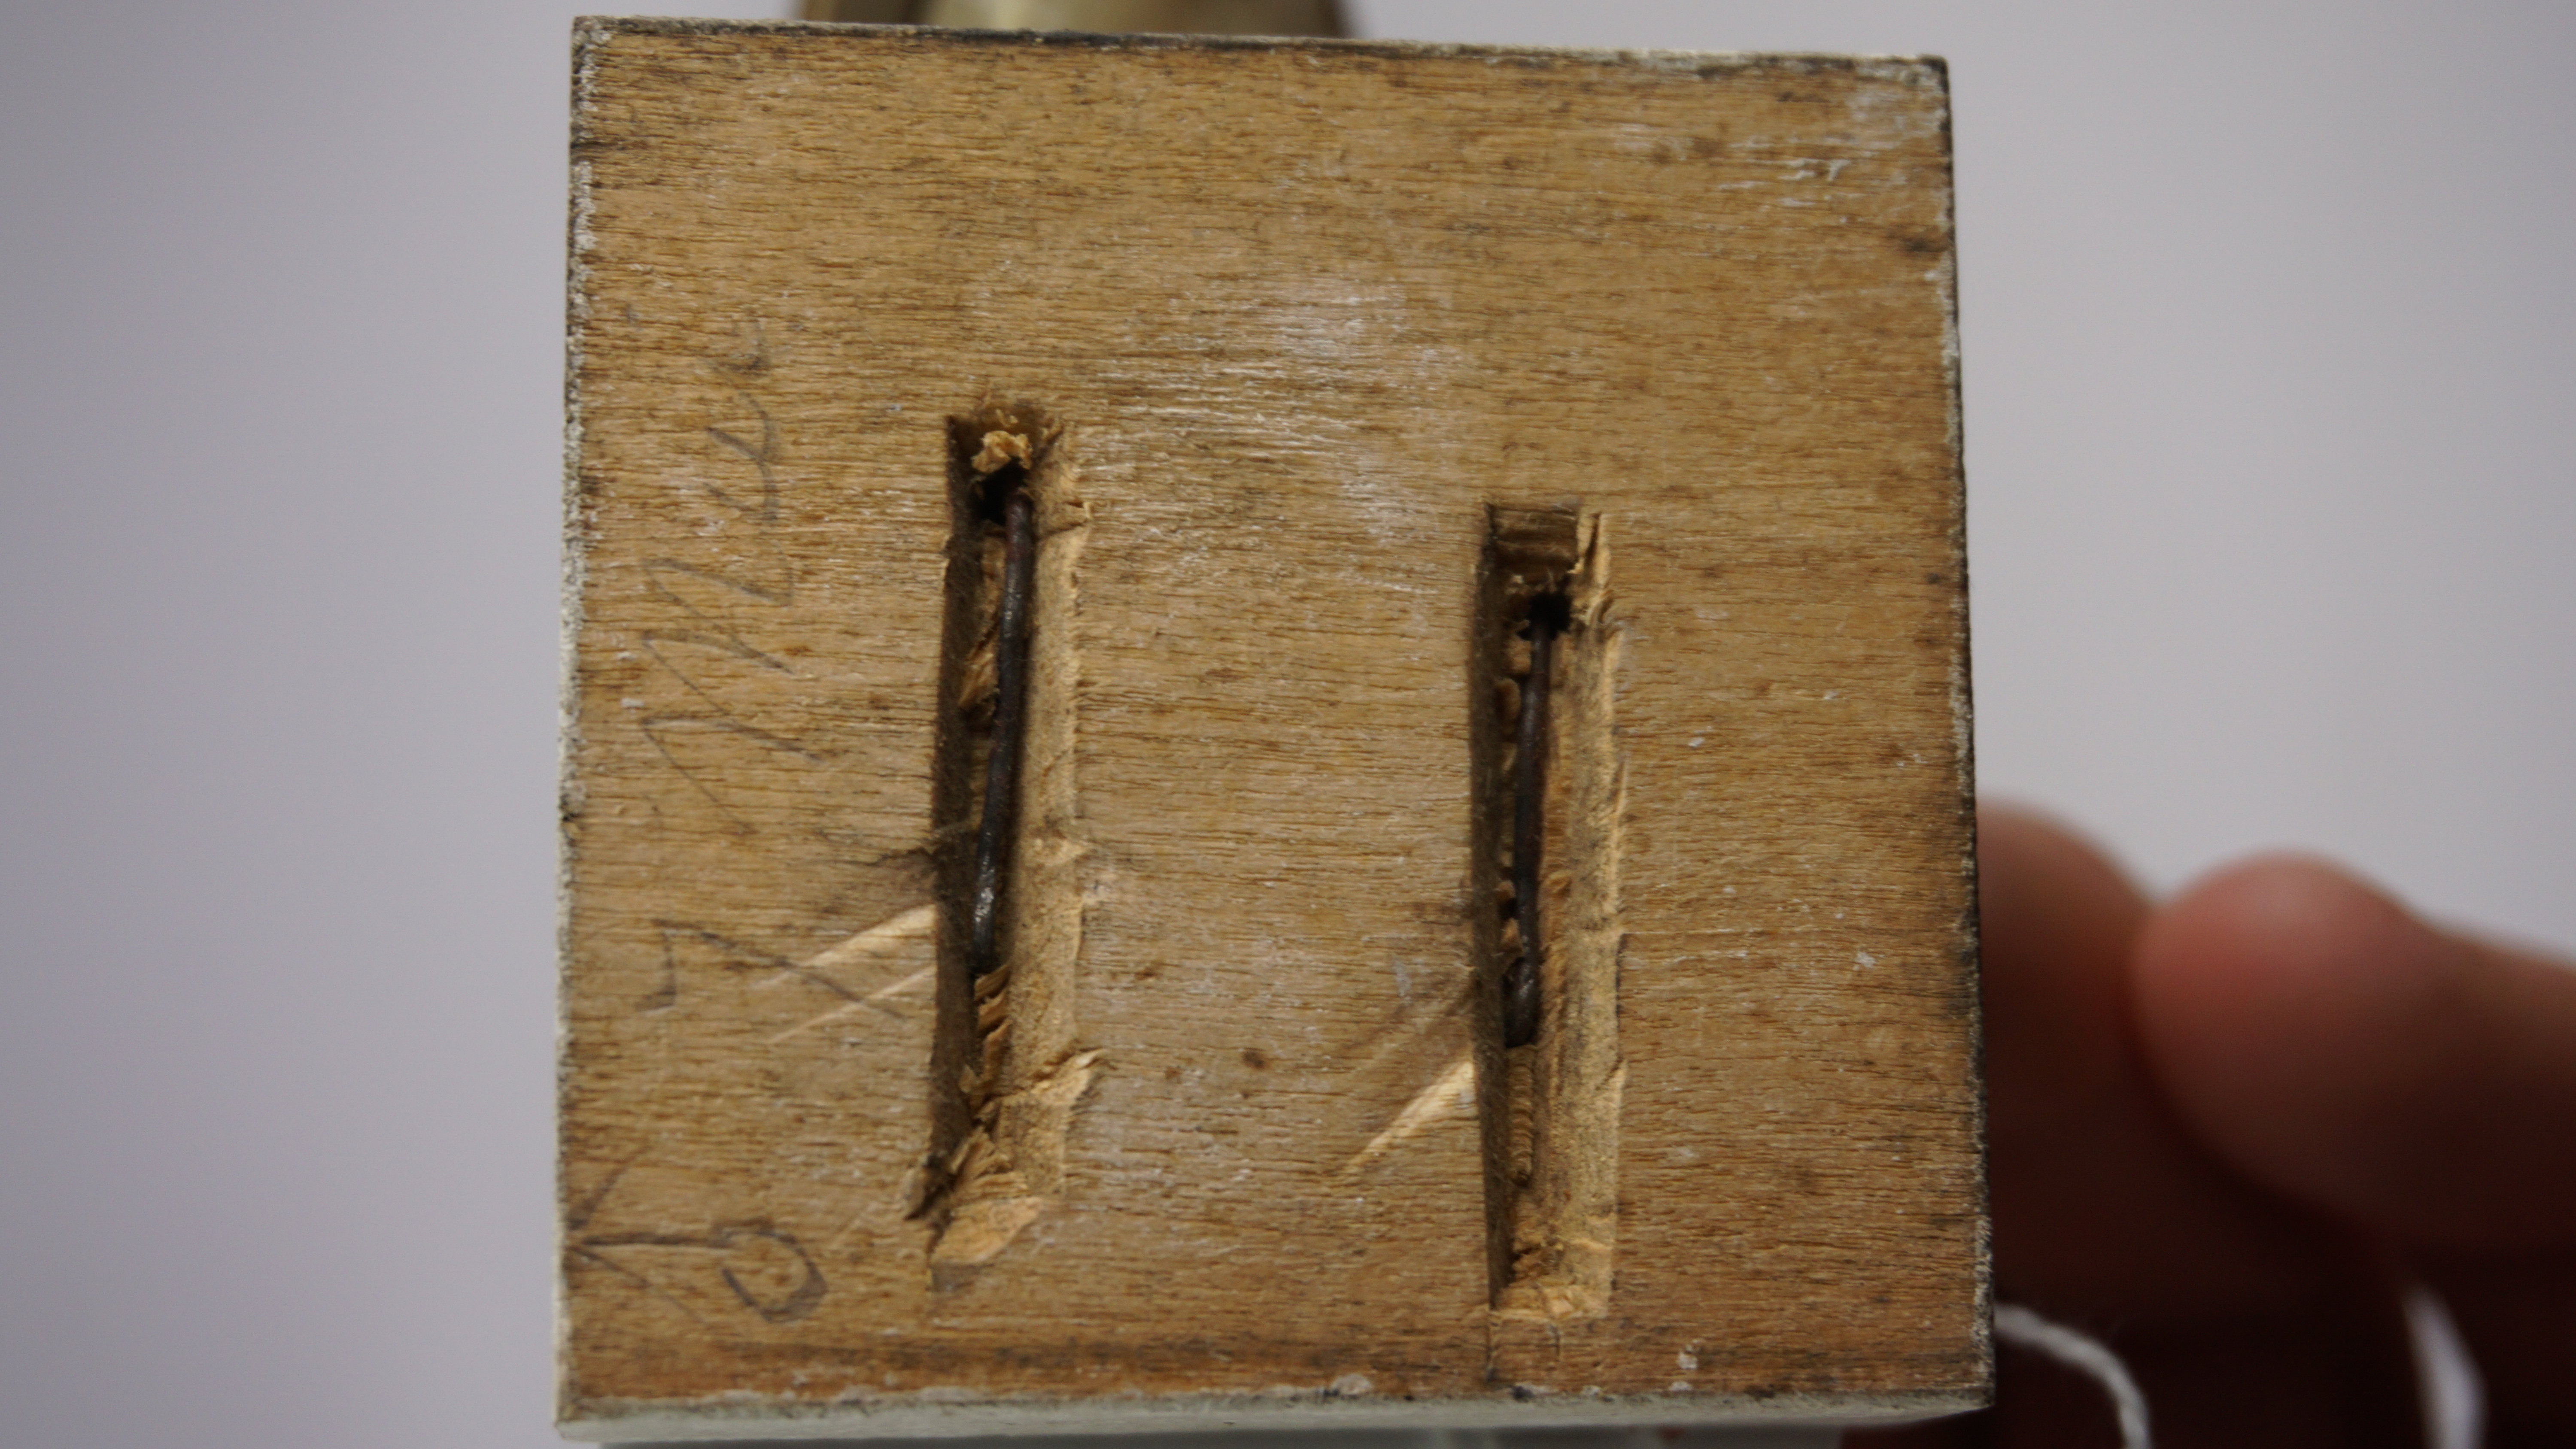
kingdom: Animalia
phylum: Chordata
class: Aves
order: Charadriiformes
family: Scolopacidae
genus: Calidris
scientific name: Calidris temminckii
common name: Temminck's stint
